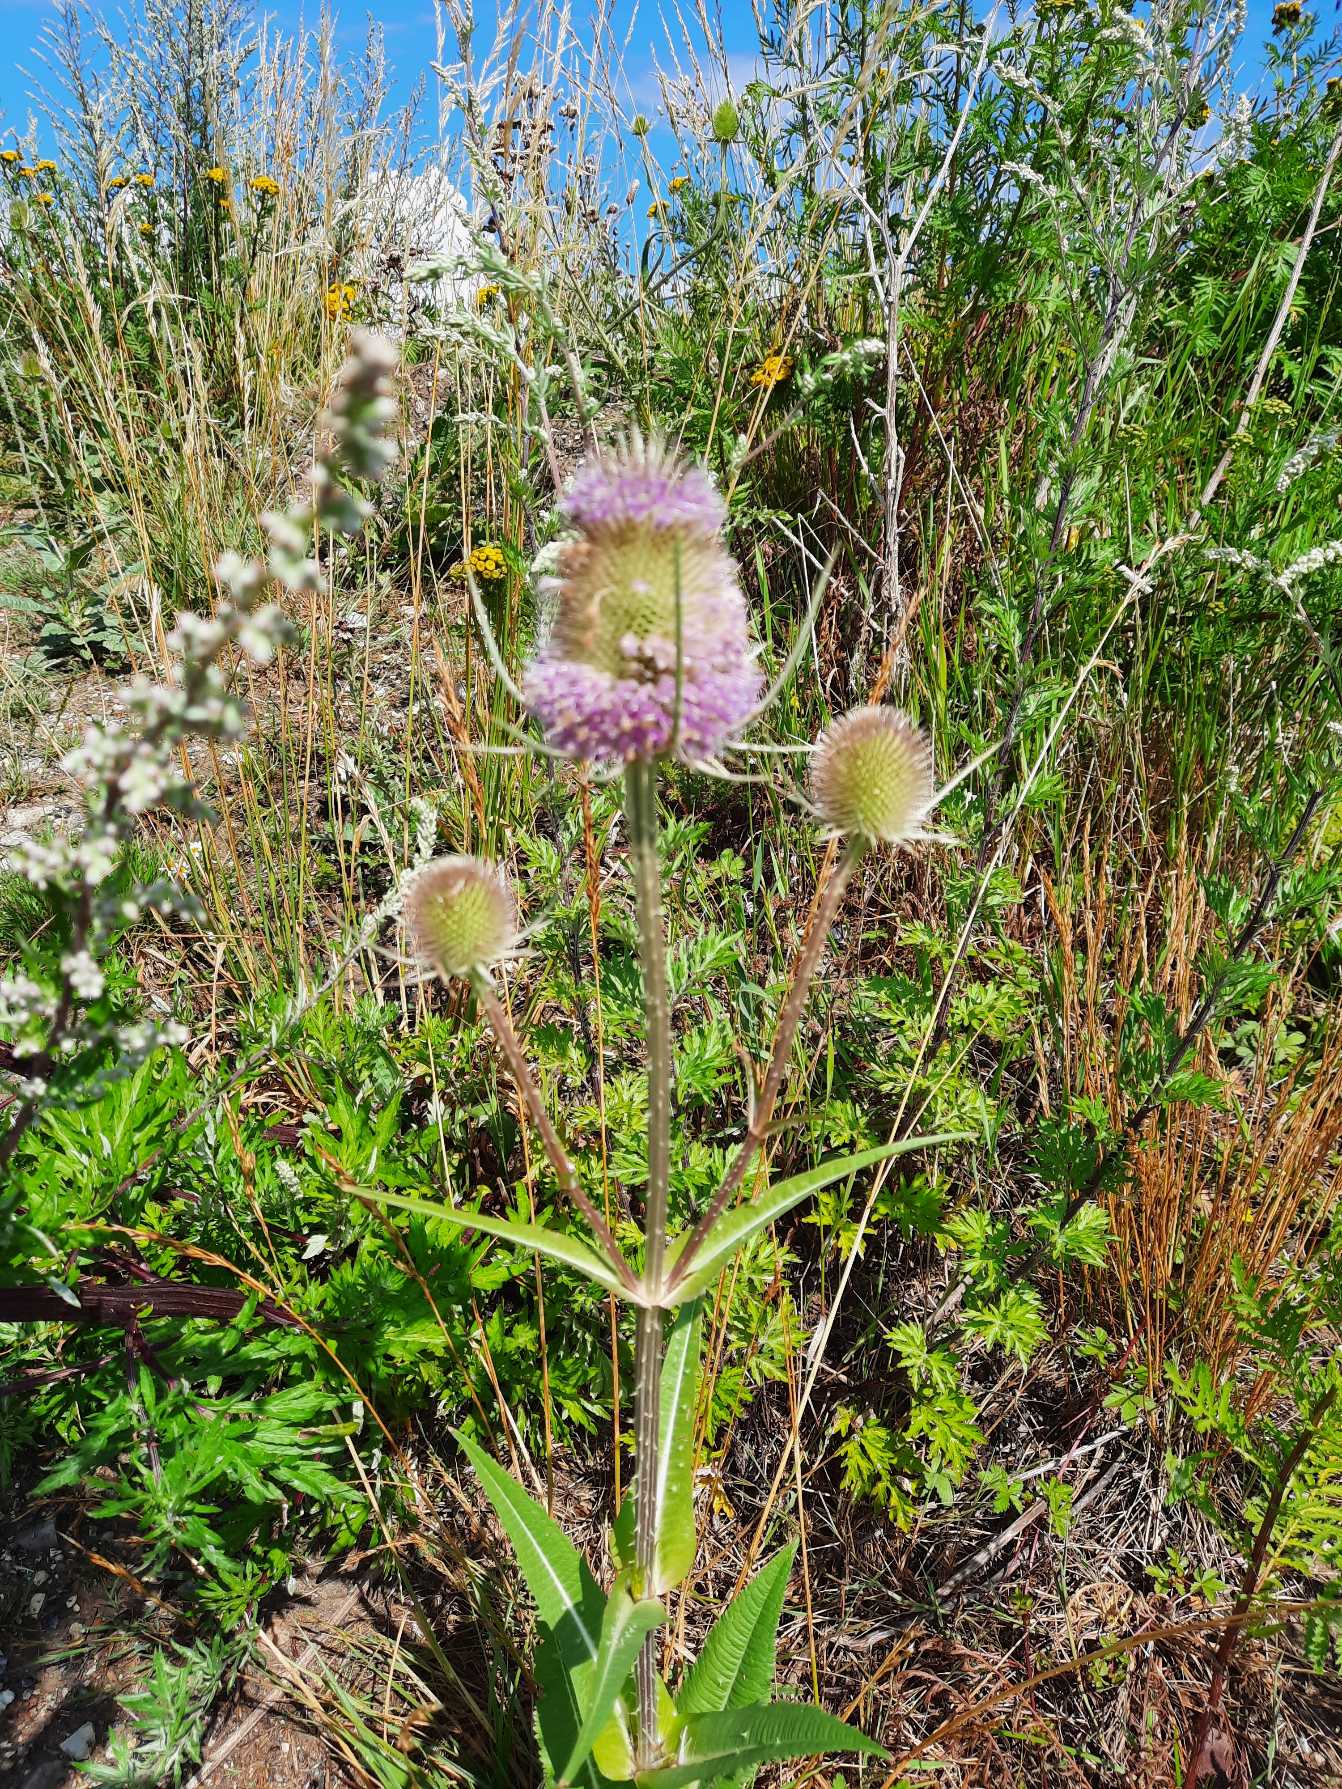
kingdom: Plantae
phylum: Tracheophyta
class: Magnoliopsida
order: Dipsacales
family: Caprifoliaceae
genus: Dipsacus
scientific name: Dipsacus fullonum
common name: Gærde-kartebolle
